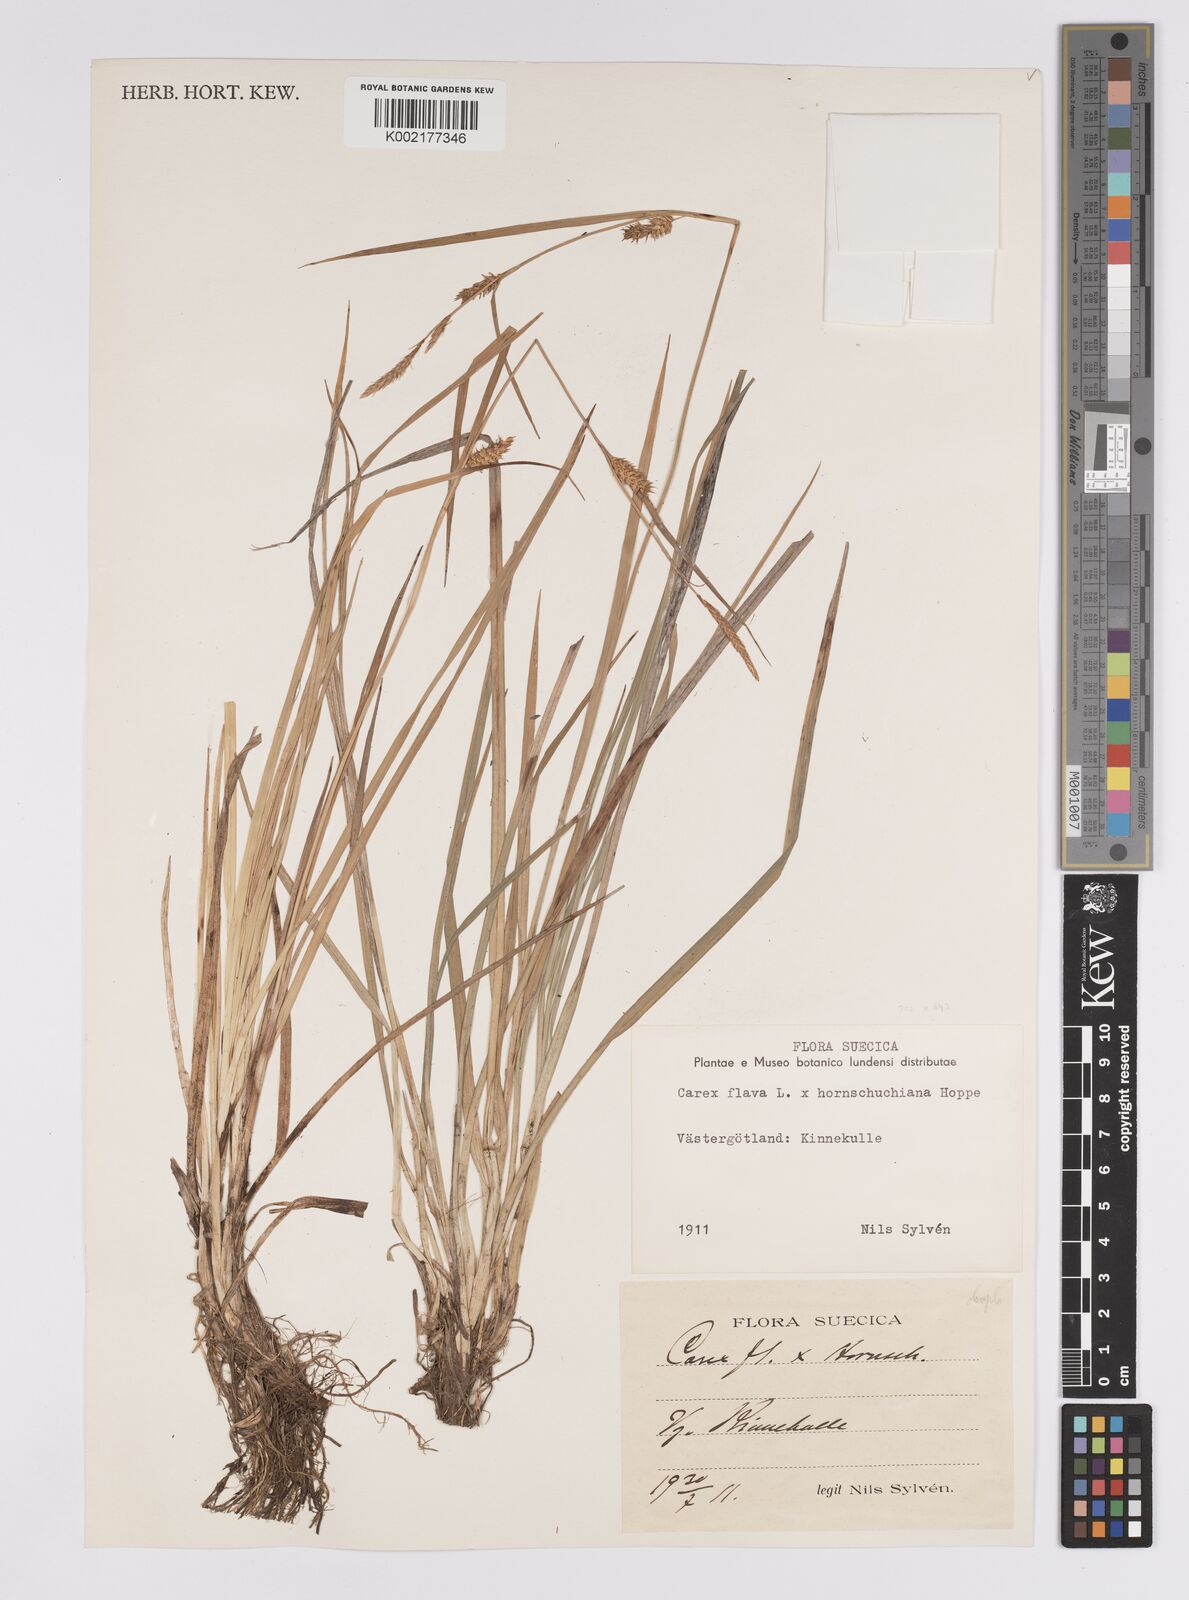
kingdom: Plantae
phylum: Tracheophyta
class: Liliopsida
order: Poales
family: Cyperaceae
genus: Carex
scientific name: Carex hostiana
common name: Tawny sedge
